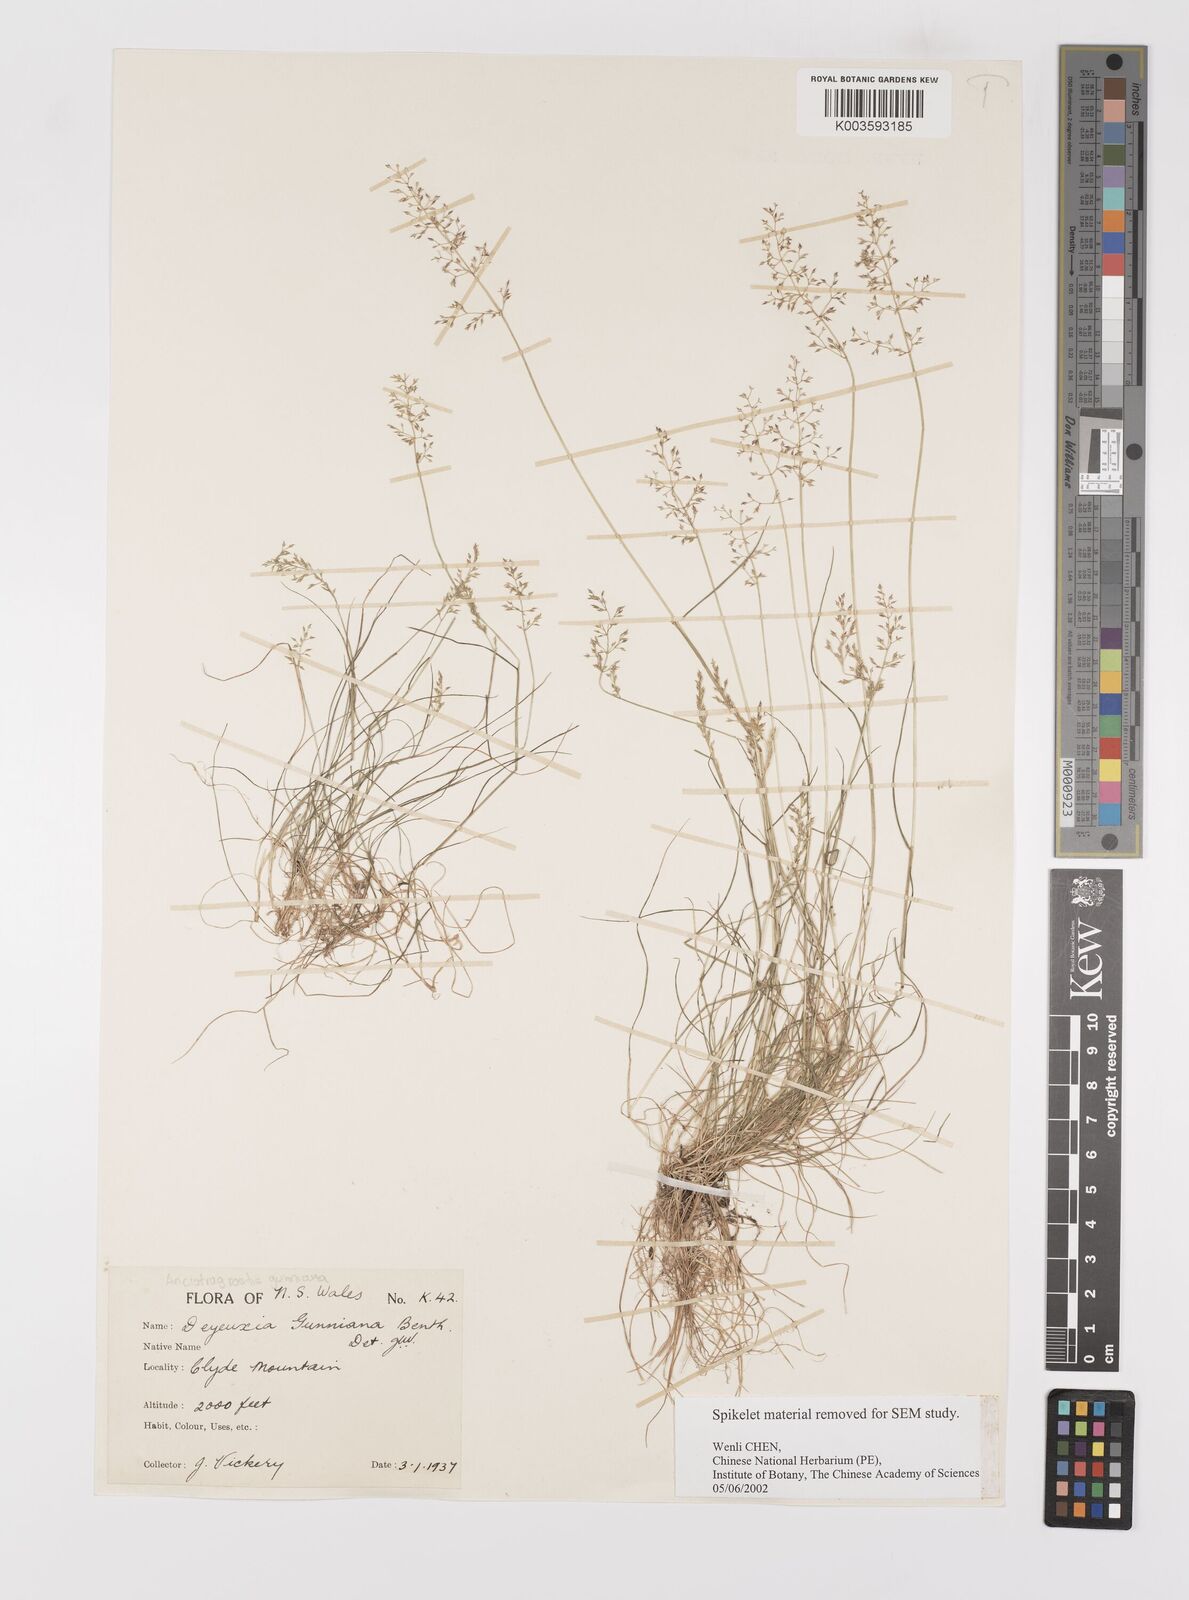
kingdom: Plantae
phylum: Tracheophyta
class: Liliopsida
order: Poales
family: Poaceae
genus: Ancistragrostis
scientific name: Ancistragrostis
